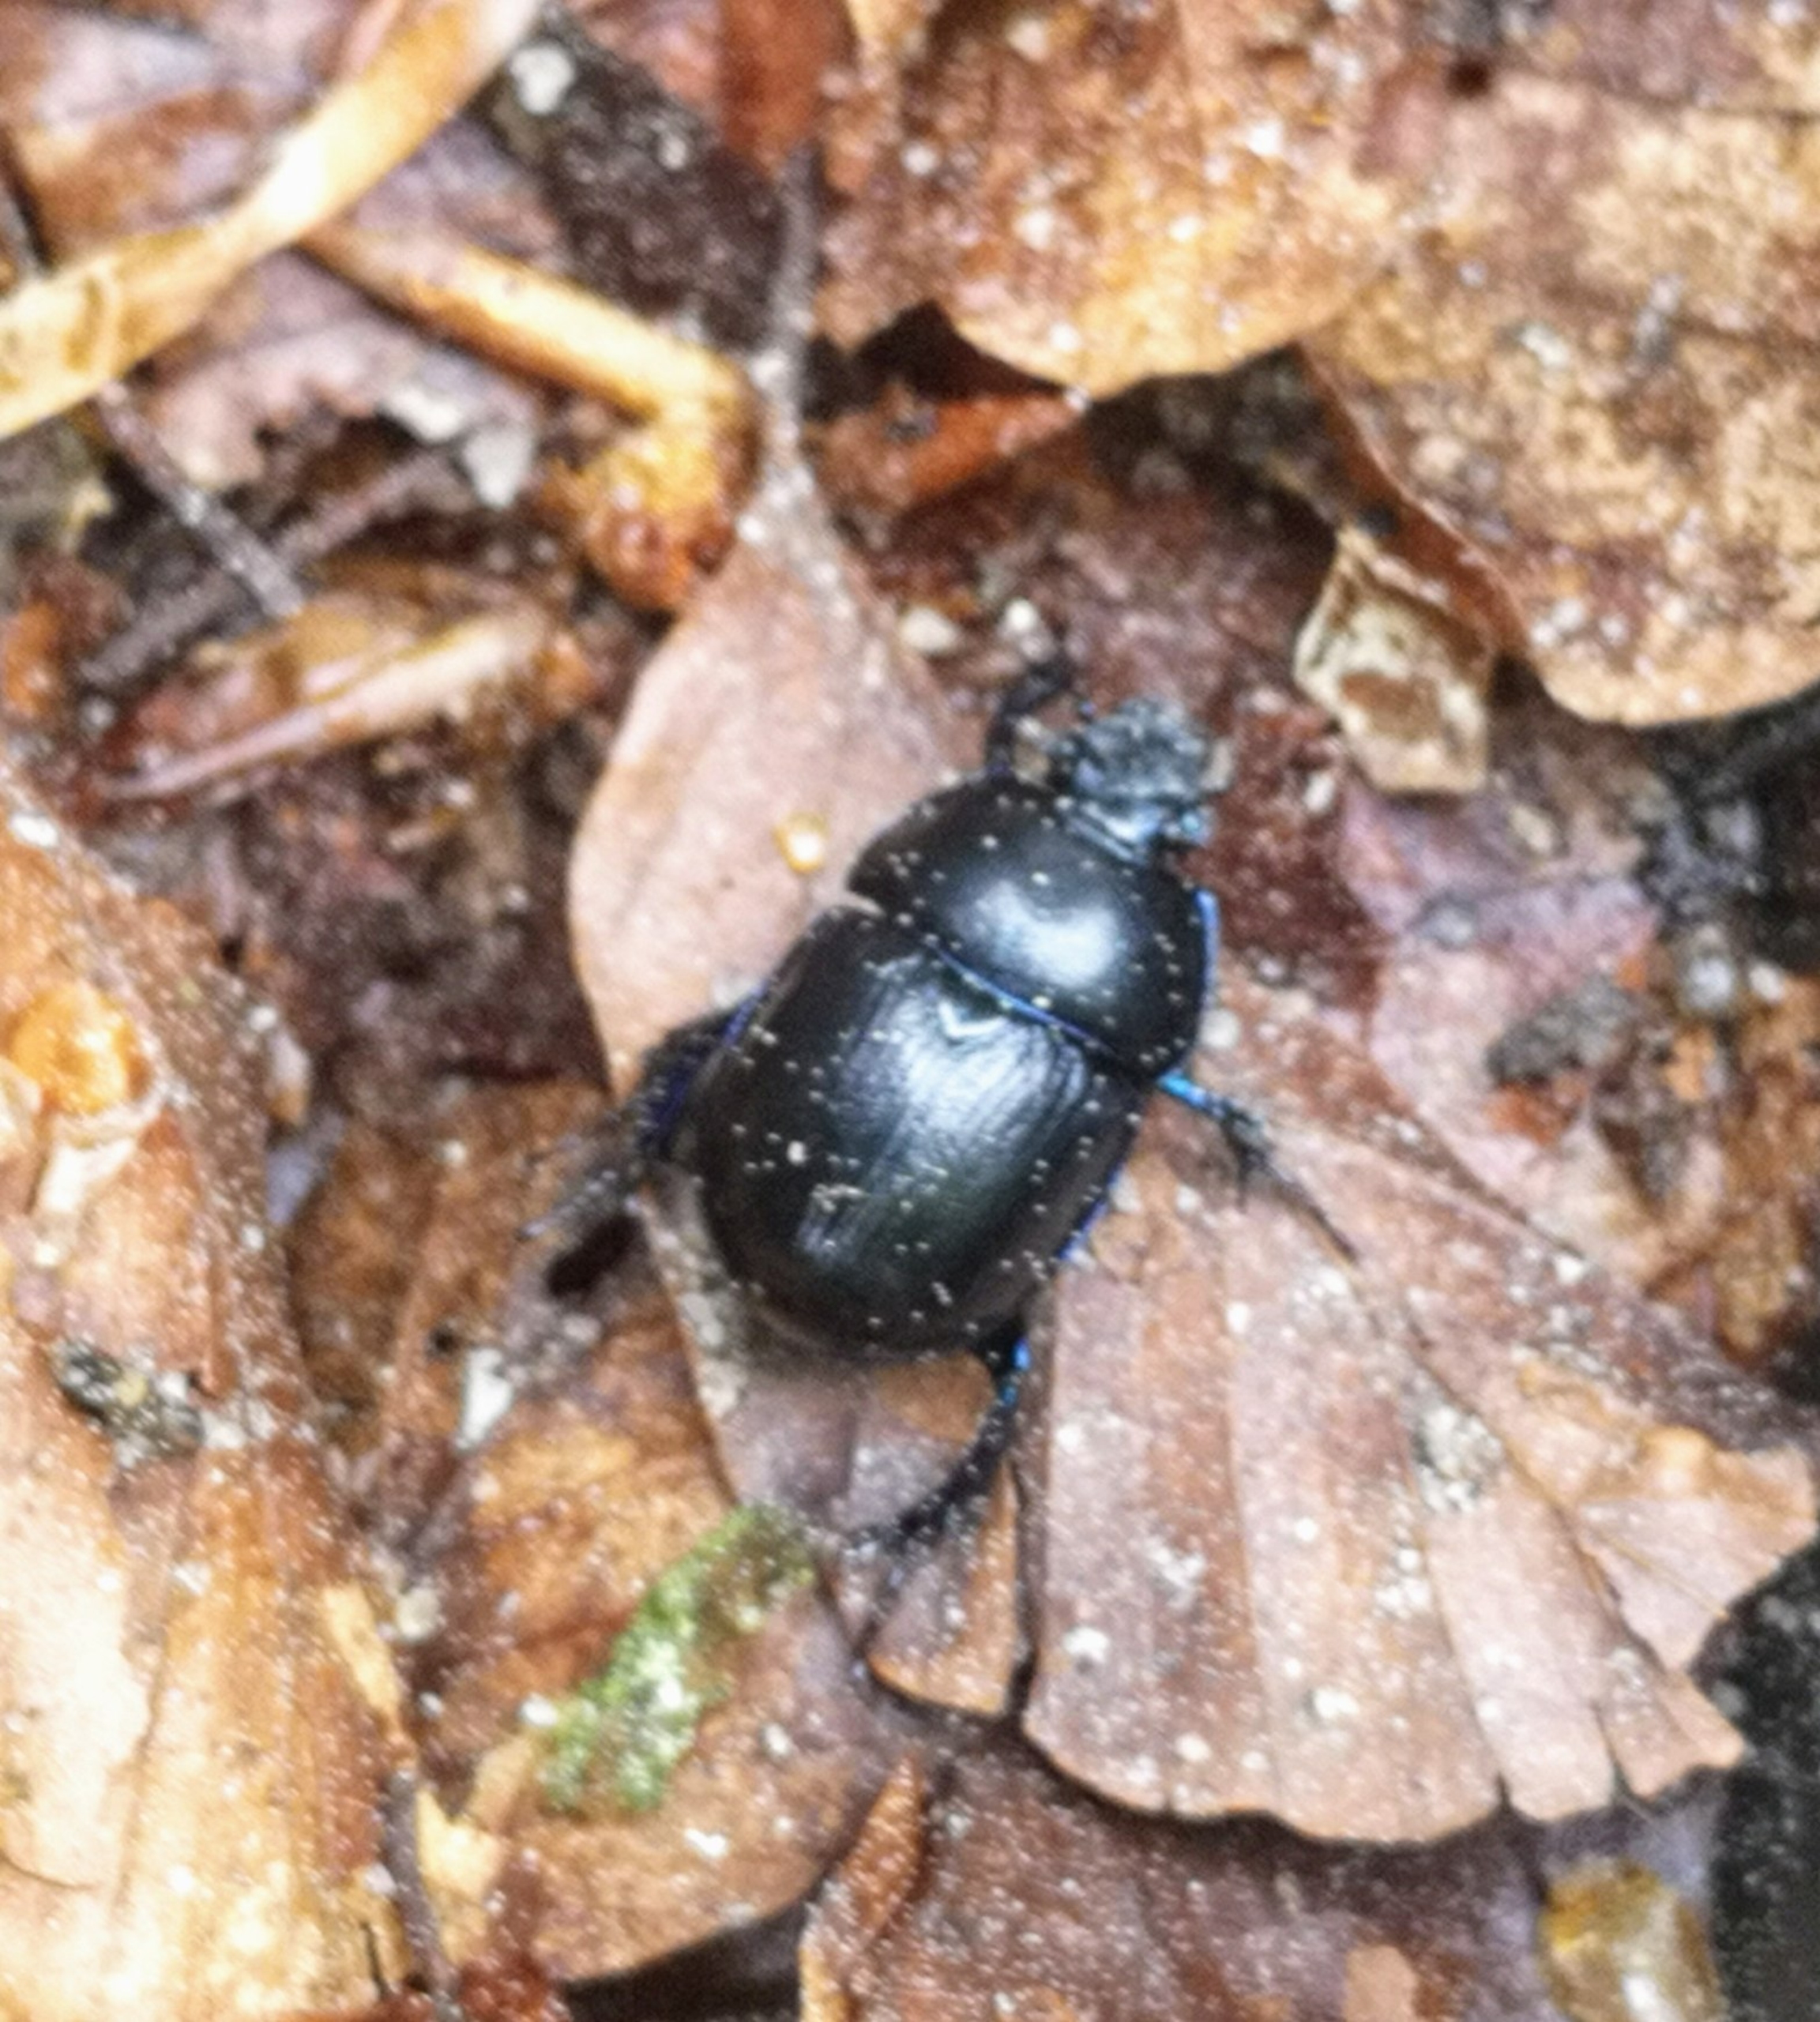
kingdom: Animalia
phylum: Arthropoda
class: Insecta
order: Coleoptera
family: Geotrupidae
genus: Anoplotrupes
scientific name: Anoplotrupes stercorosus
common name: Skovskarnbasse
